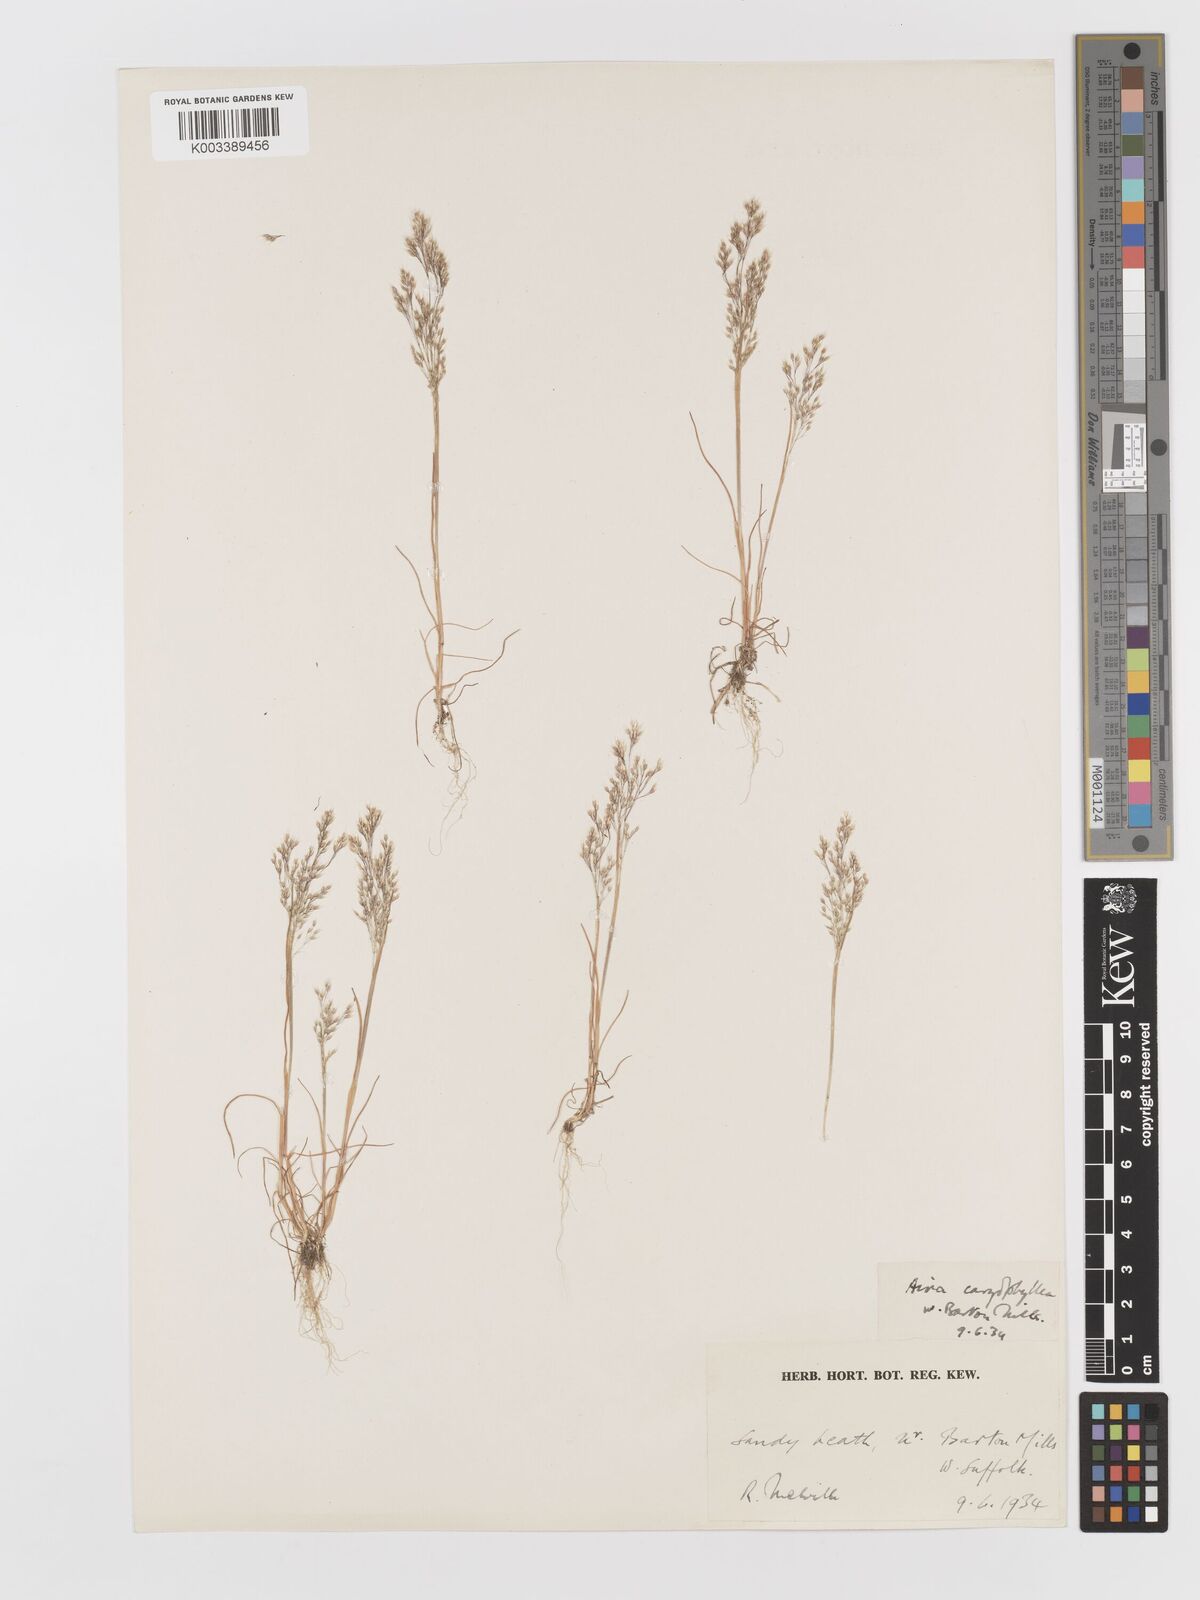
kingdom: Plantae
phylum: Tracheophyta
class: Liliopsida
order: Poales
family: Poaceae
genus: Aira
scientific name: Aira caryophyllea
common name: Silver hairgrass
